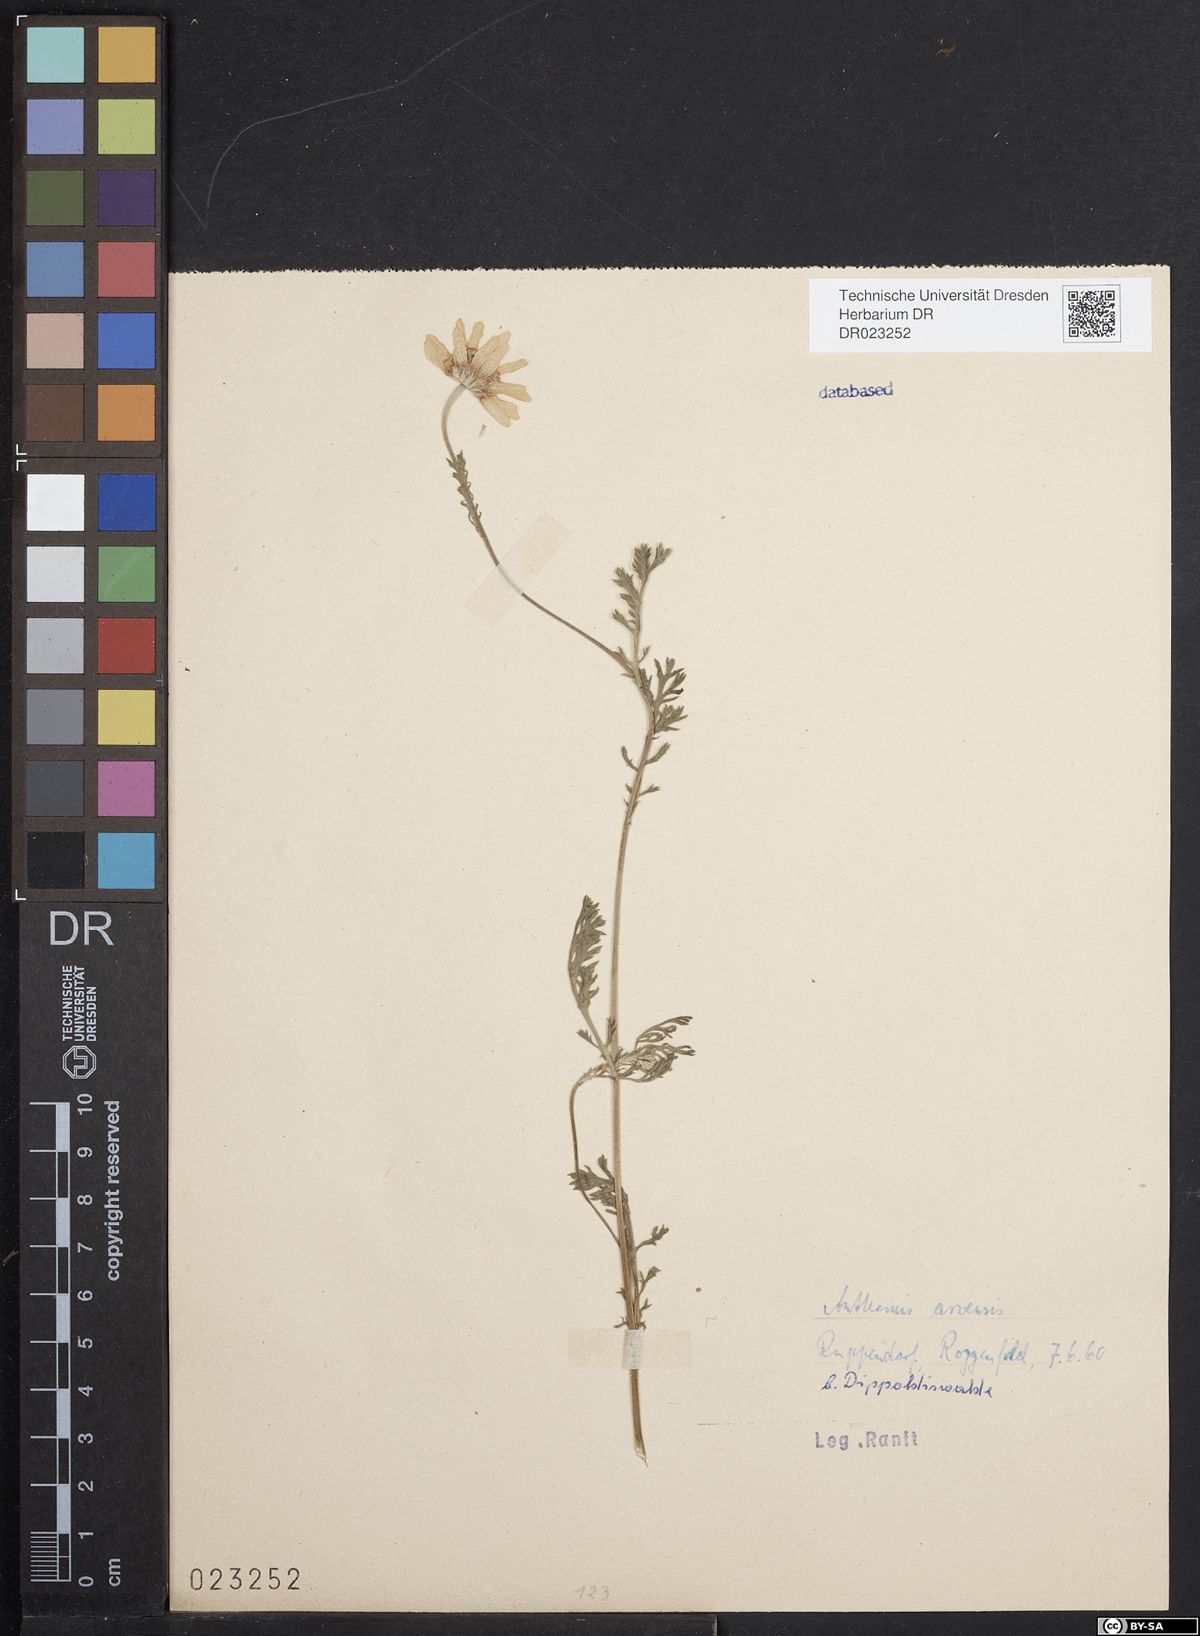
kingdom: Plantae
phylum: Tracheophyta
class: Magnoliopsida
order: Asterales
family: Asteraceae
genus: Anthemis
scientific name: Anthemis arvensis
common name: Corn chamomile
